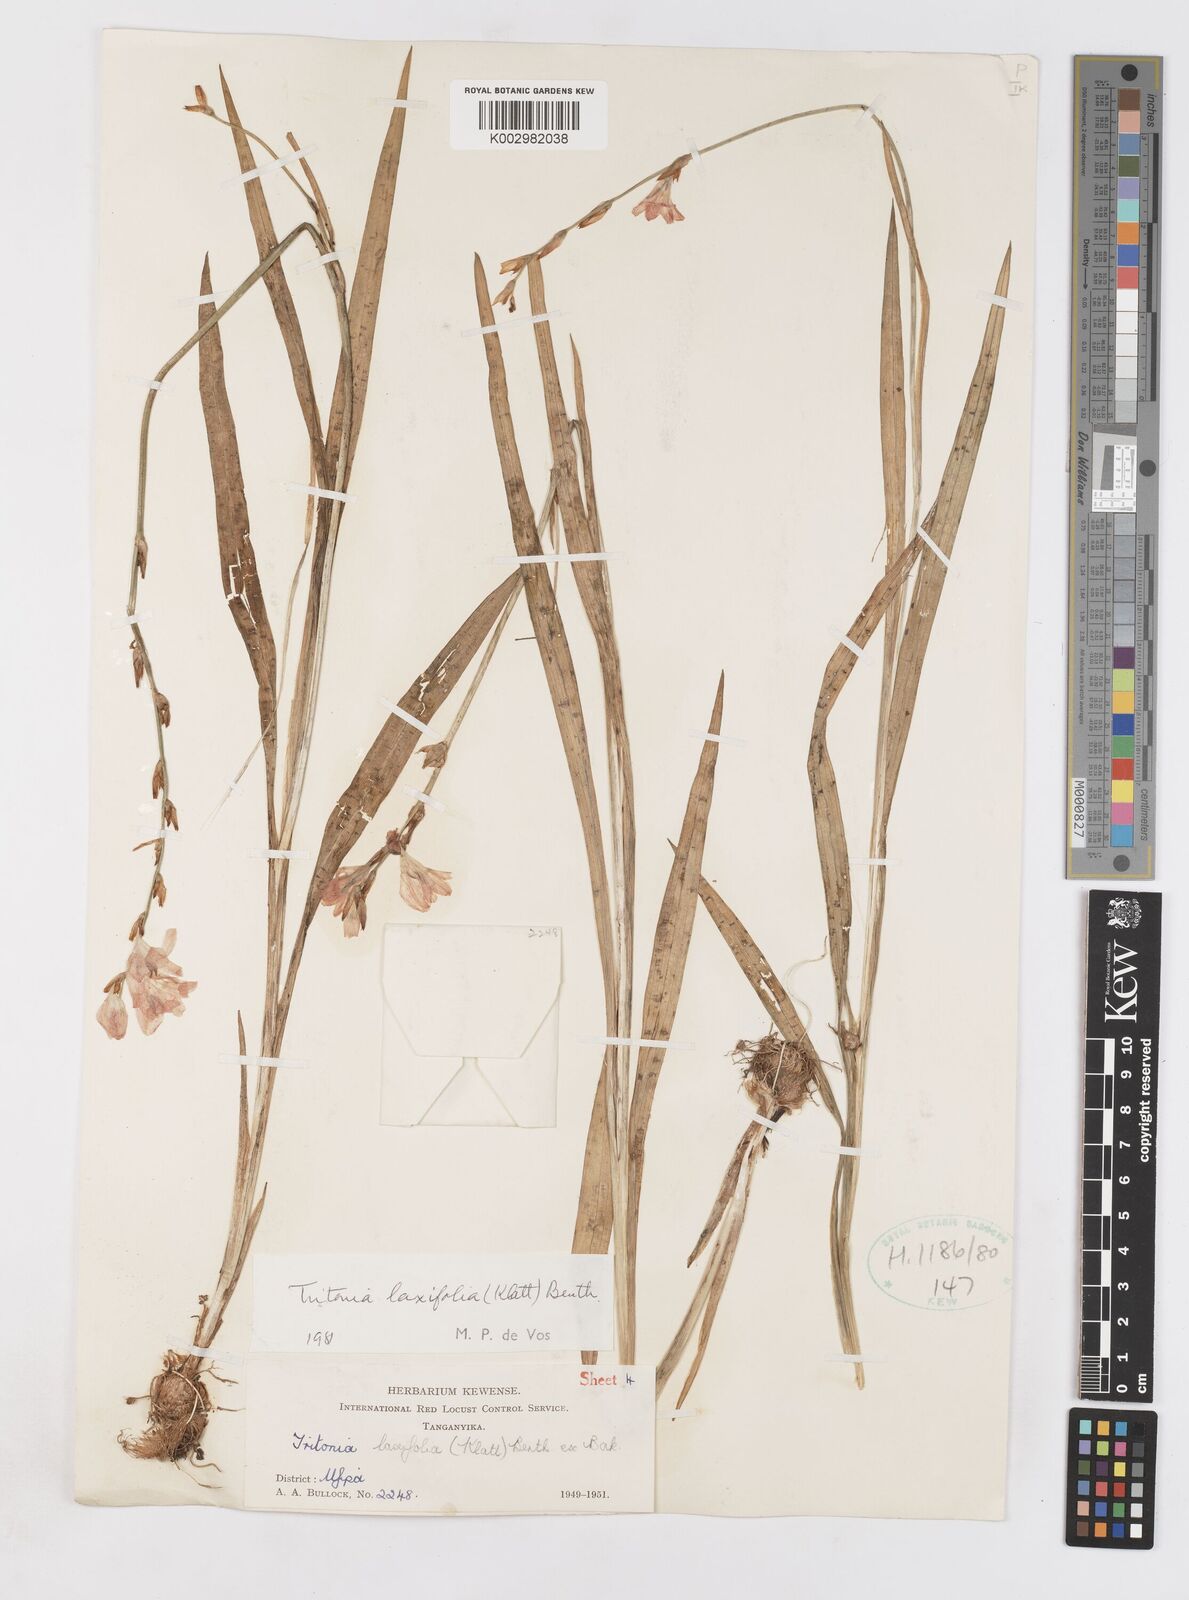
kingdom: Plantae
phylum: Tracheophyta
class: Liliopsida
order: Asparagales
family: Iridaceae
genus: Tritonia
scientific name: Tritonia laxifolia
